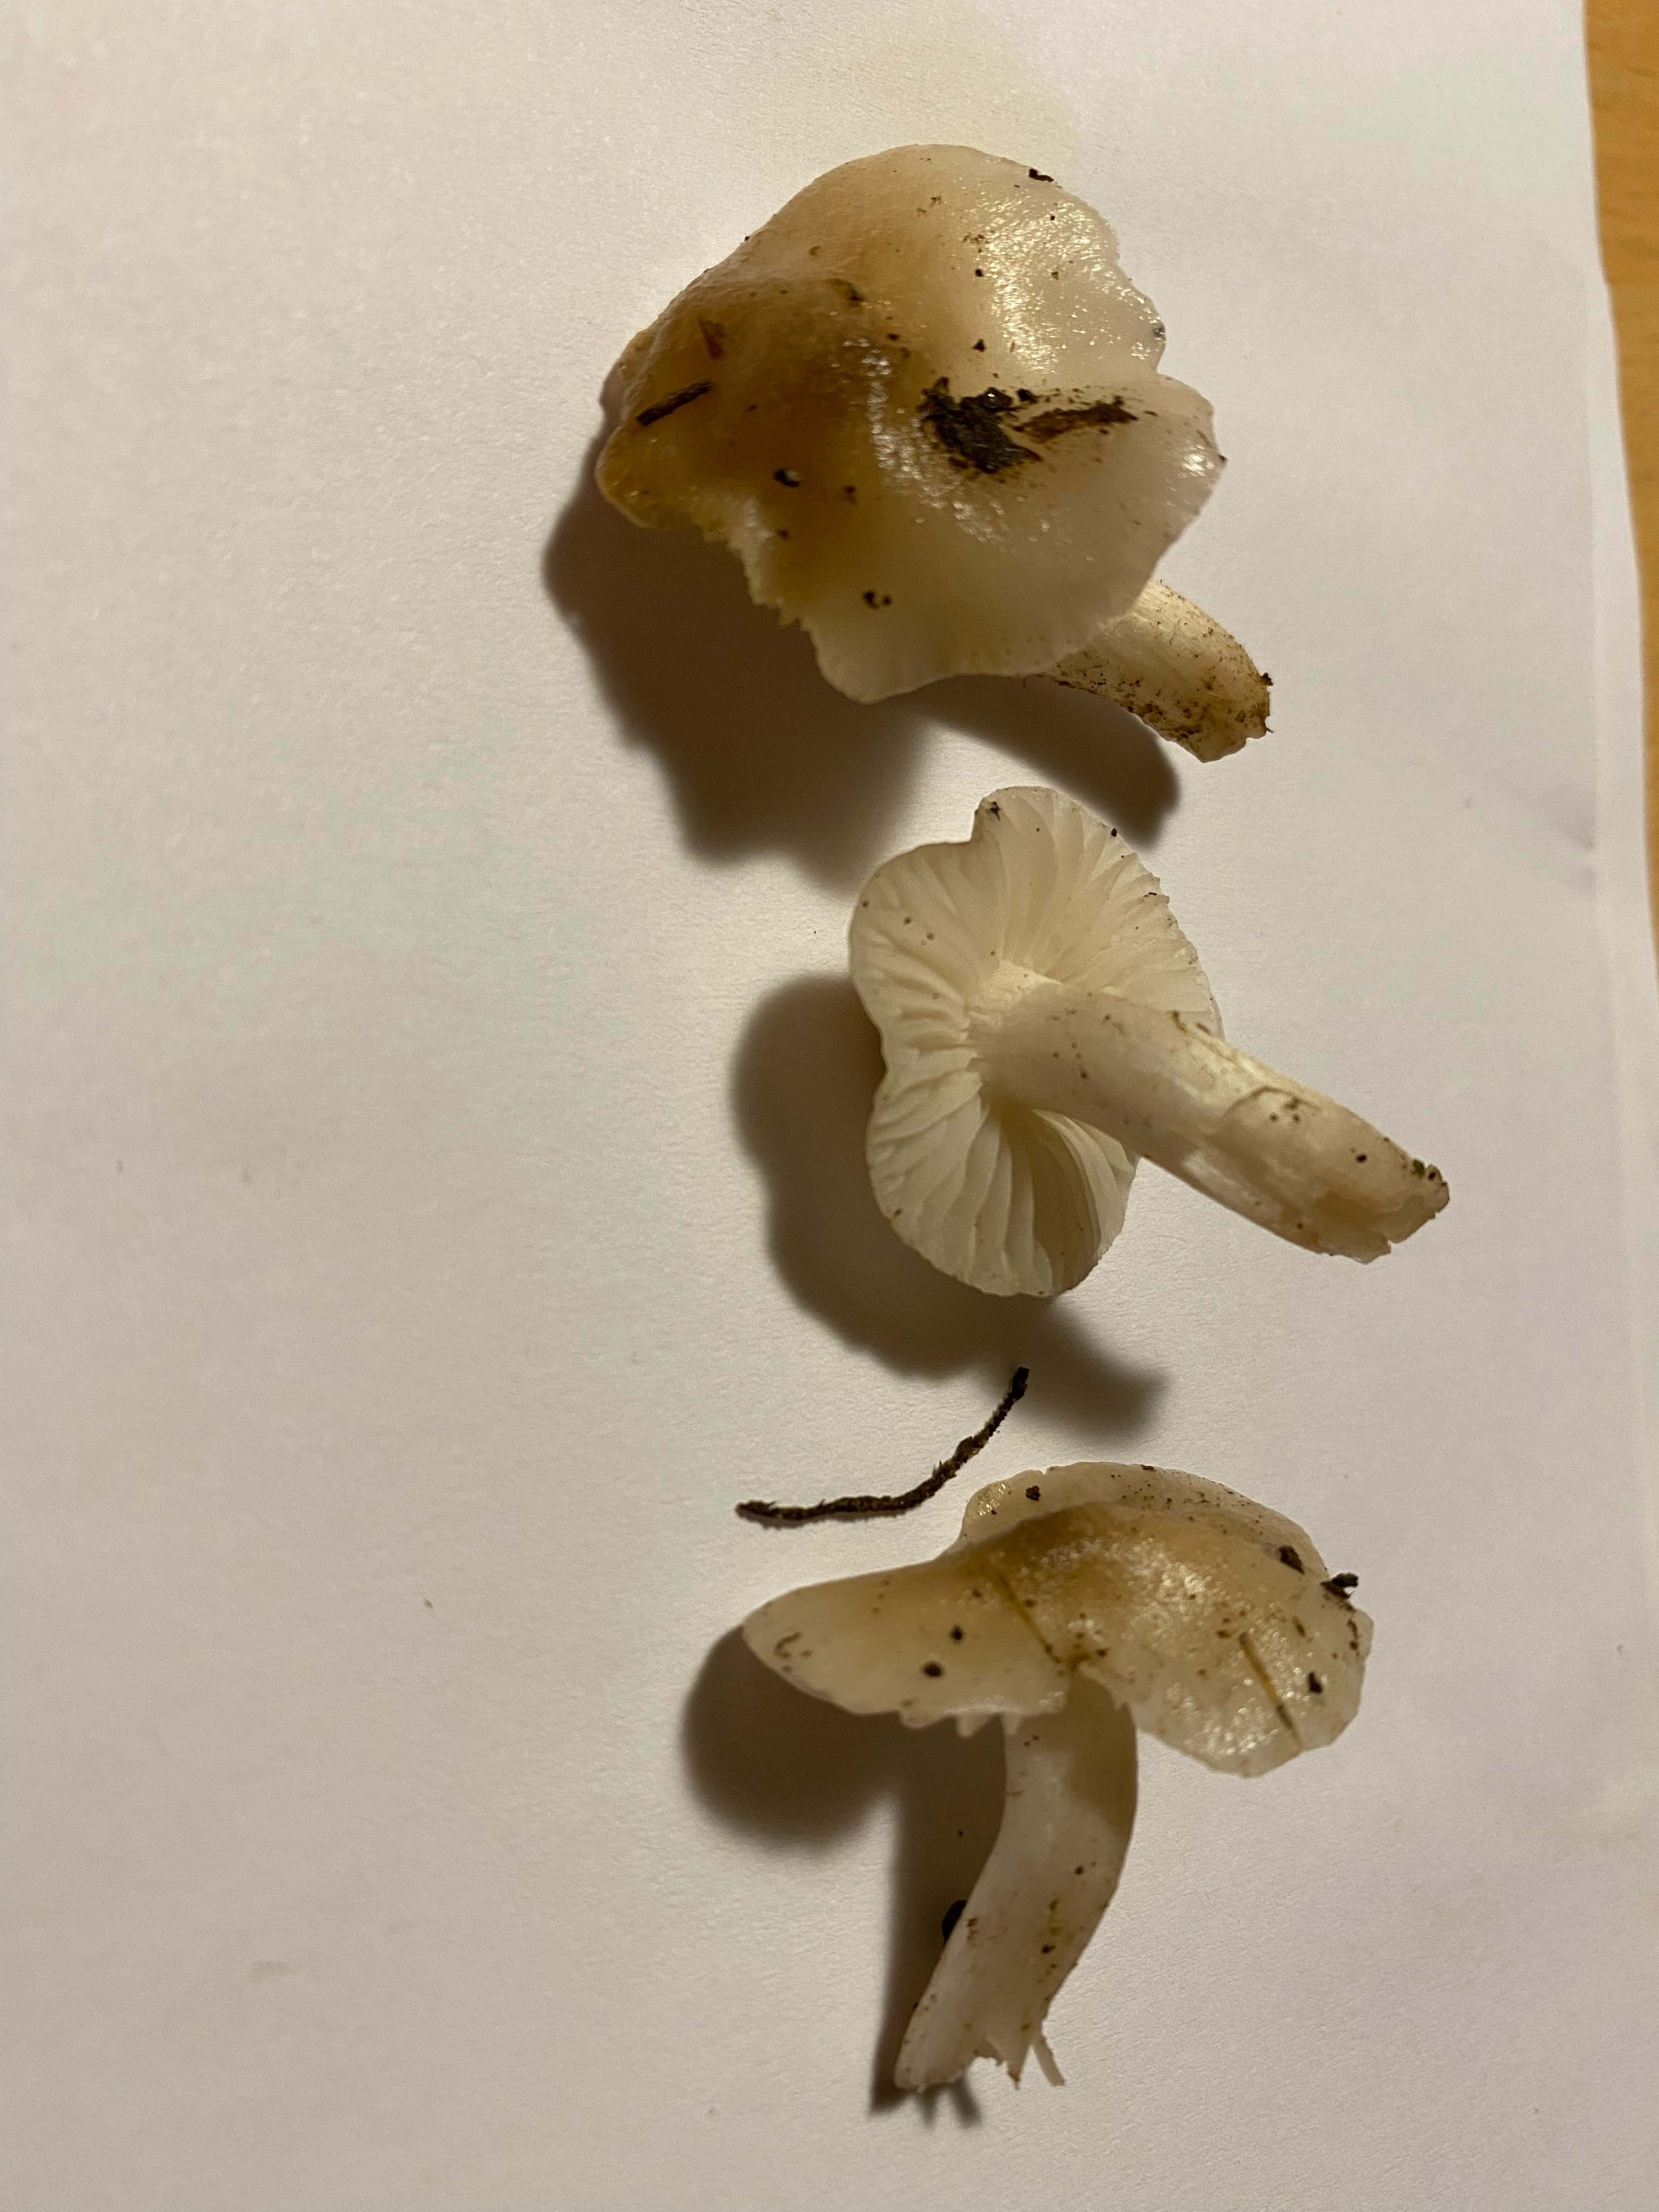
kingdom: Fungi
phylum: Basidiomycota
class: Agaricomycetes
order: Agaricales
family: Hygrophoraceae
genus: Cuphophyllus
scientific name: Cuphophyllus
